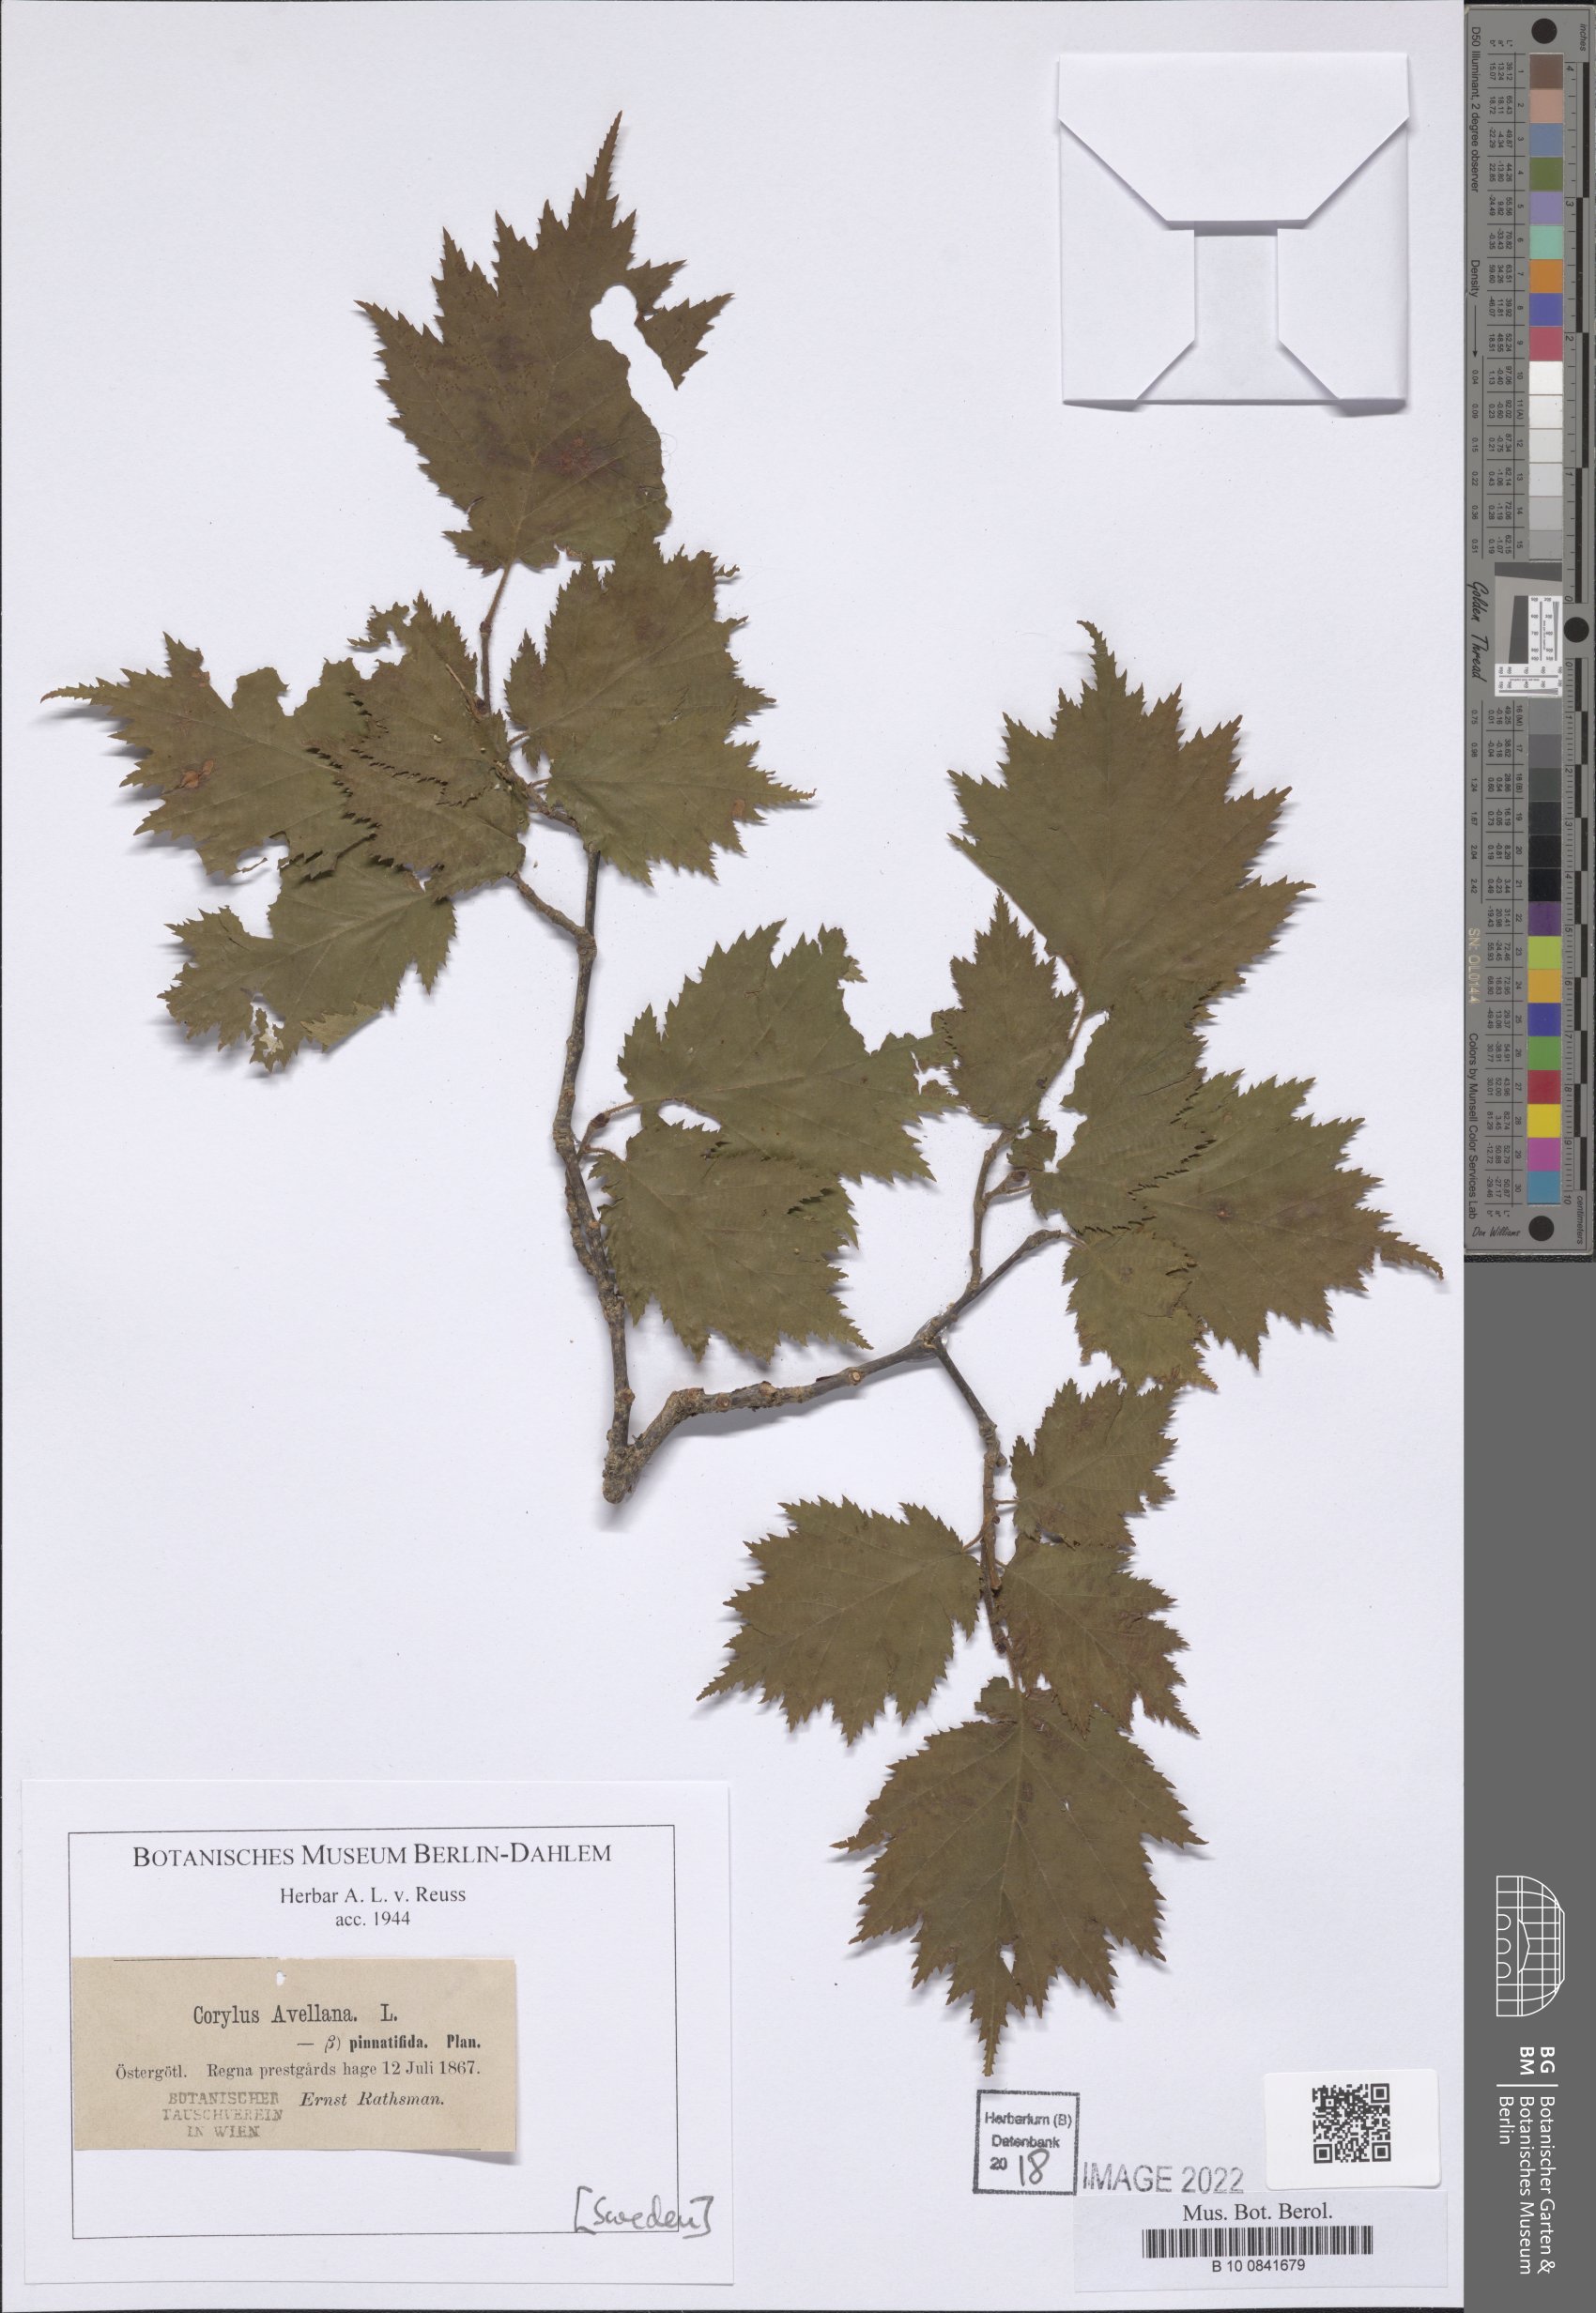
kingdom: Plantae
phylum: Tracheophyta
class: Magnoliopsida
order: Fagales
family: Betulaceae
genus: Corylus
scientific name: Corylus avellana
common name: European hazel
